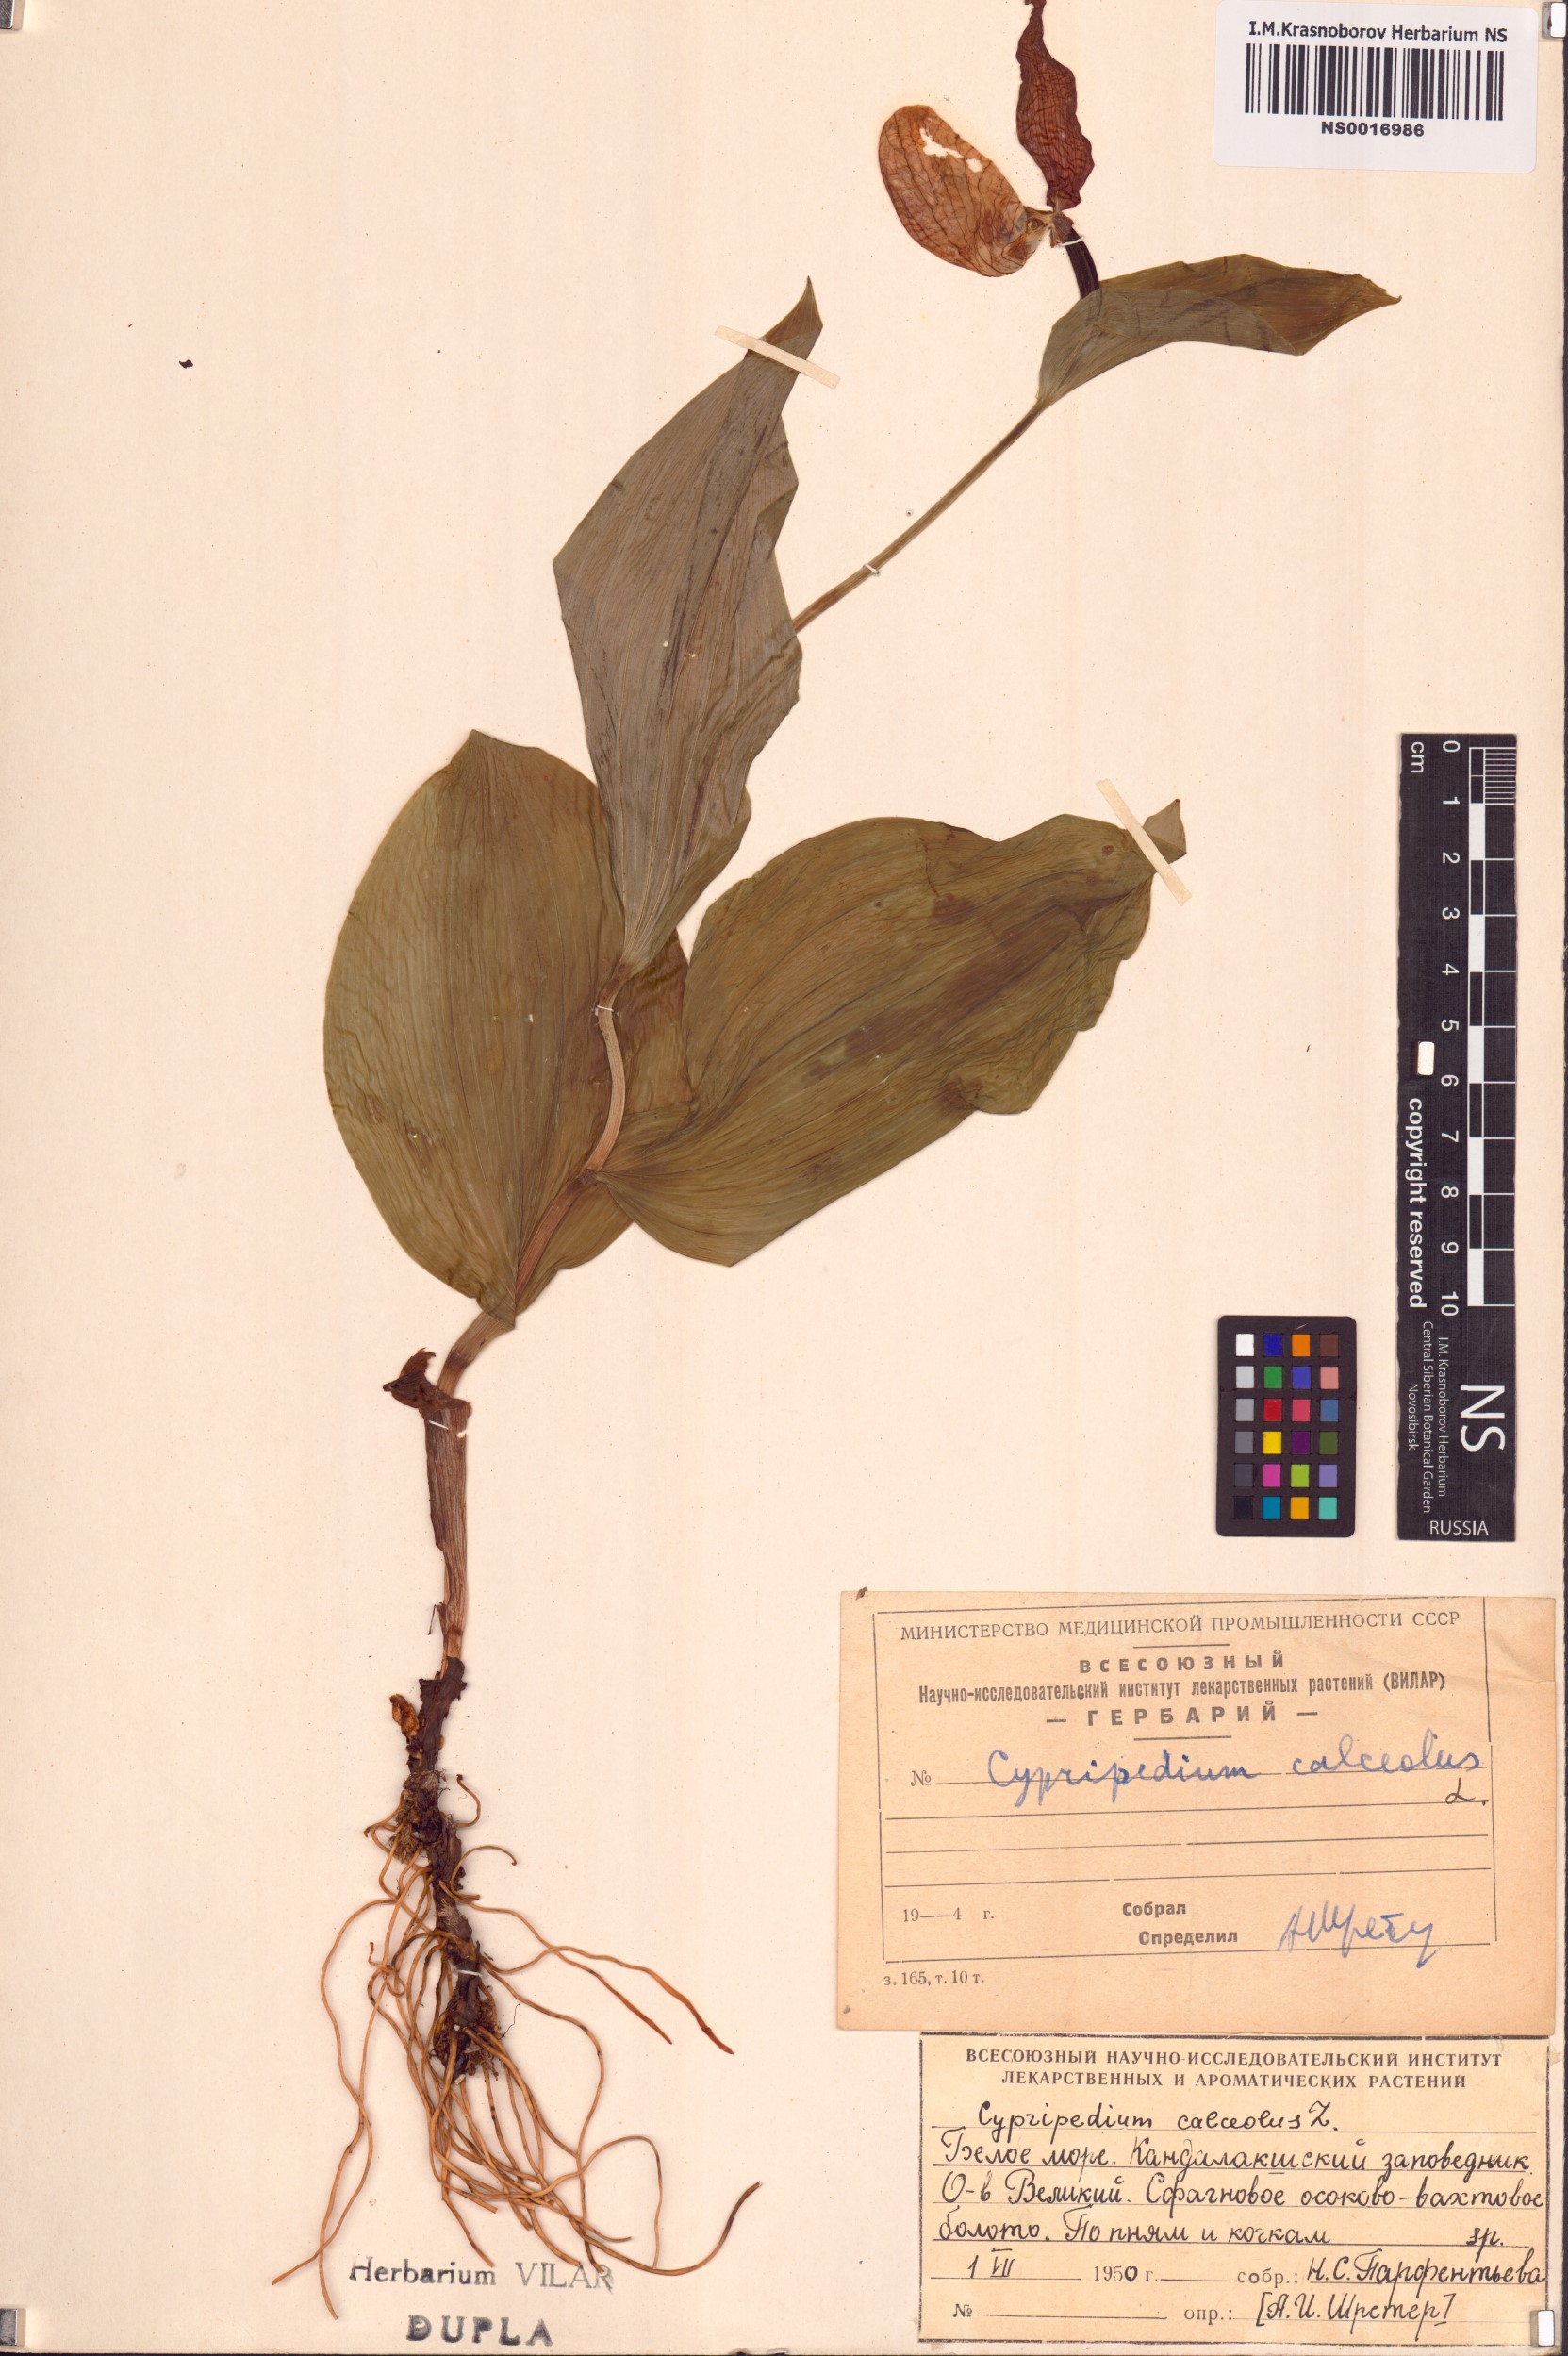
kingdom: Plantae
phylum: Tracheophyta
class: Liliopsida
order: Asparagales
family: Orchidaceae
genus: Cypripedium
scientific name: Cypripedium calceolus
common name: Lady's-slipper
